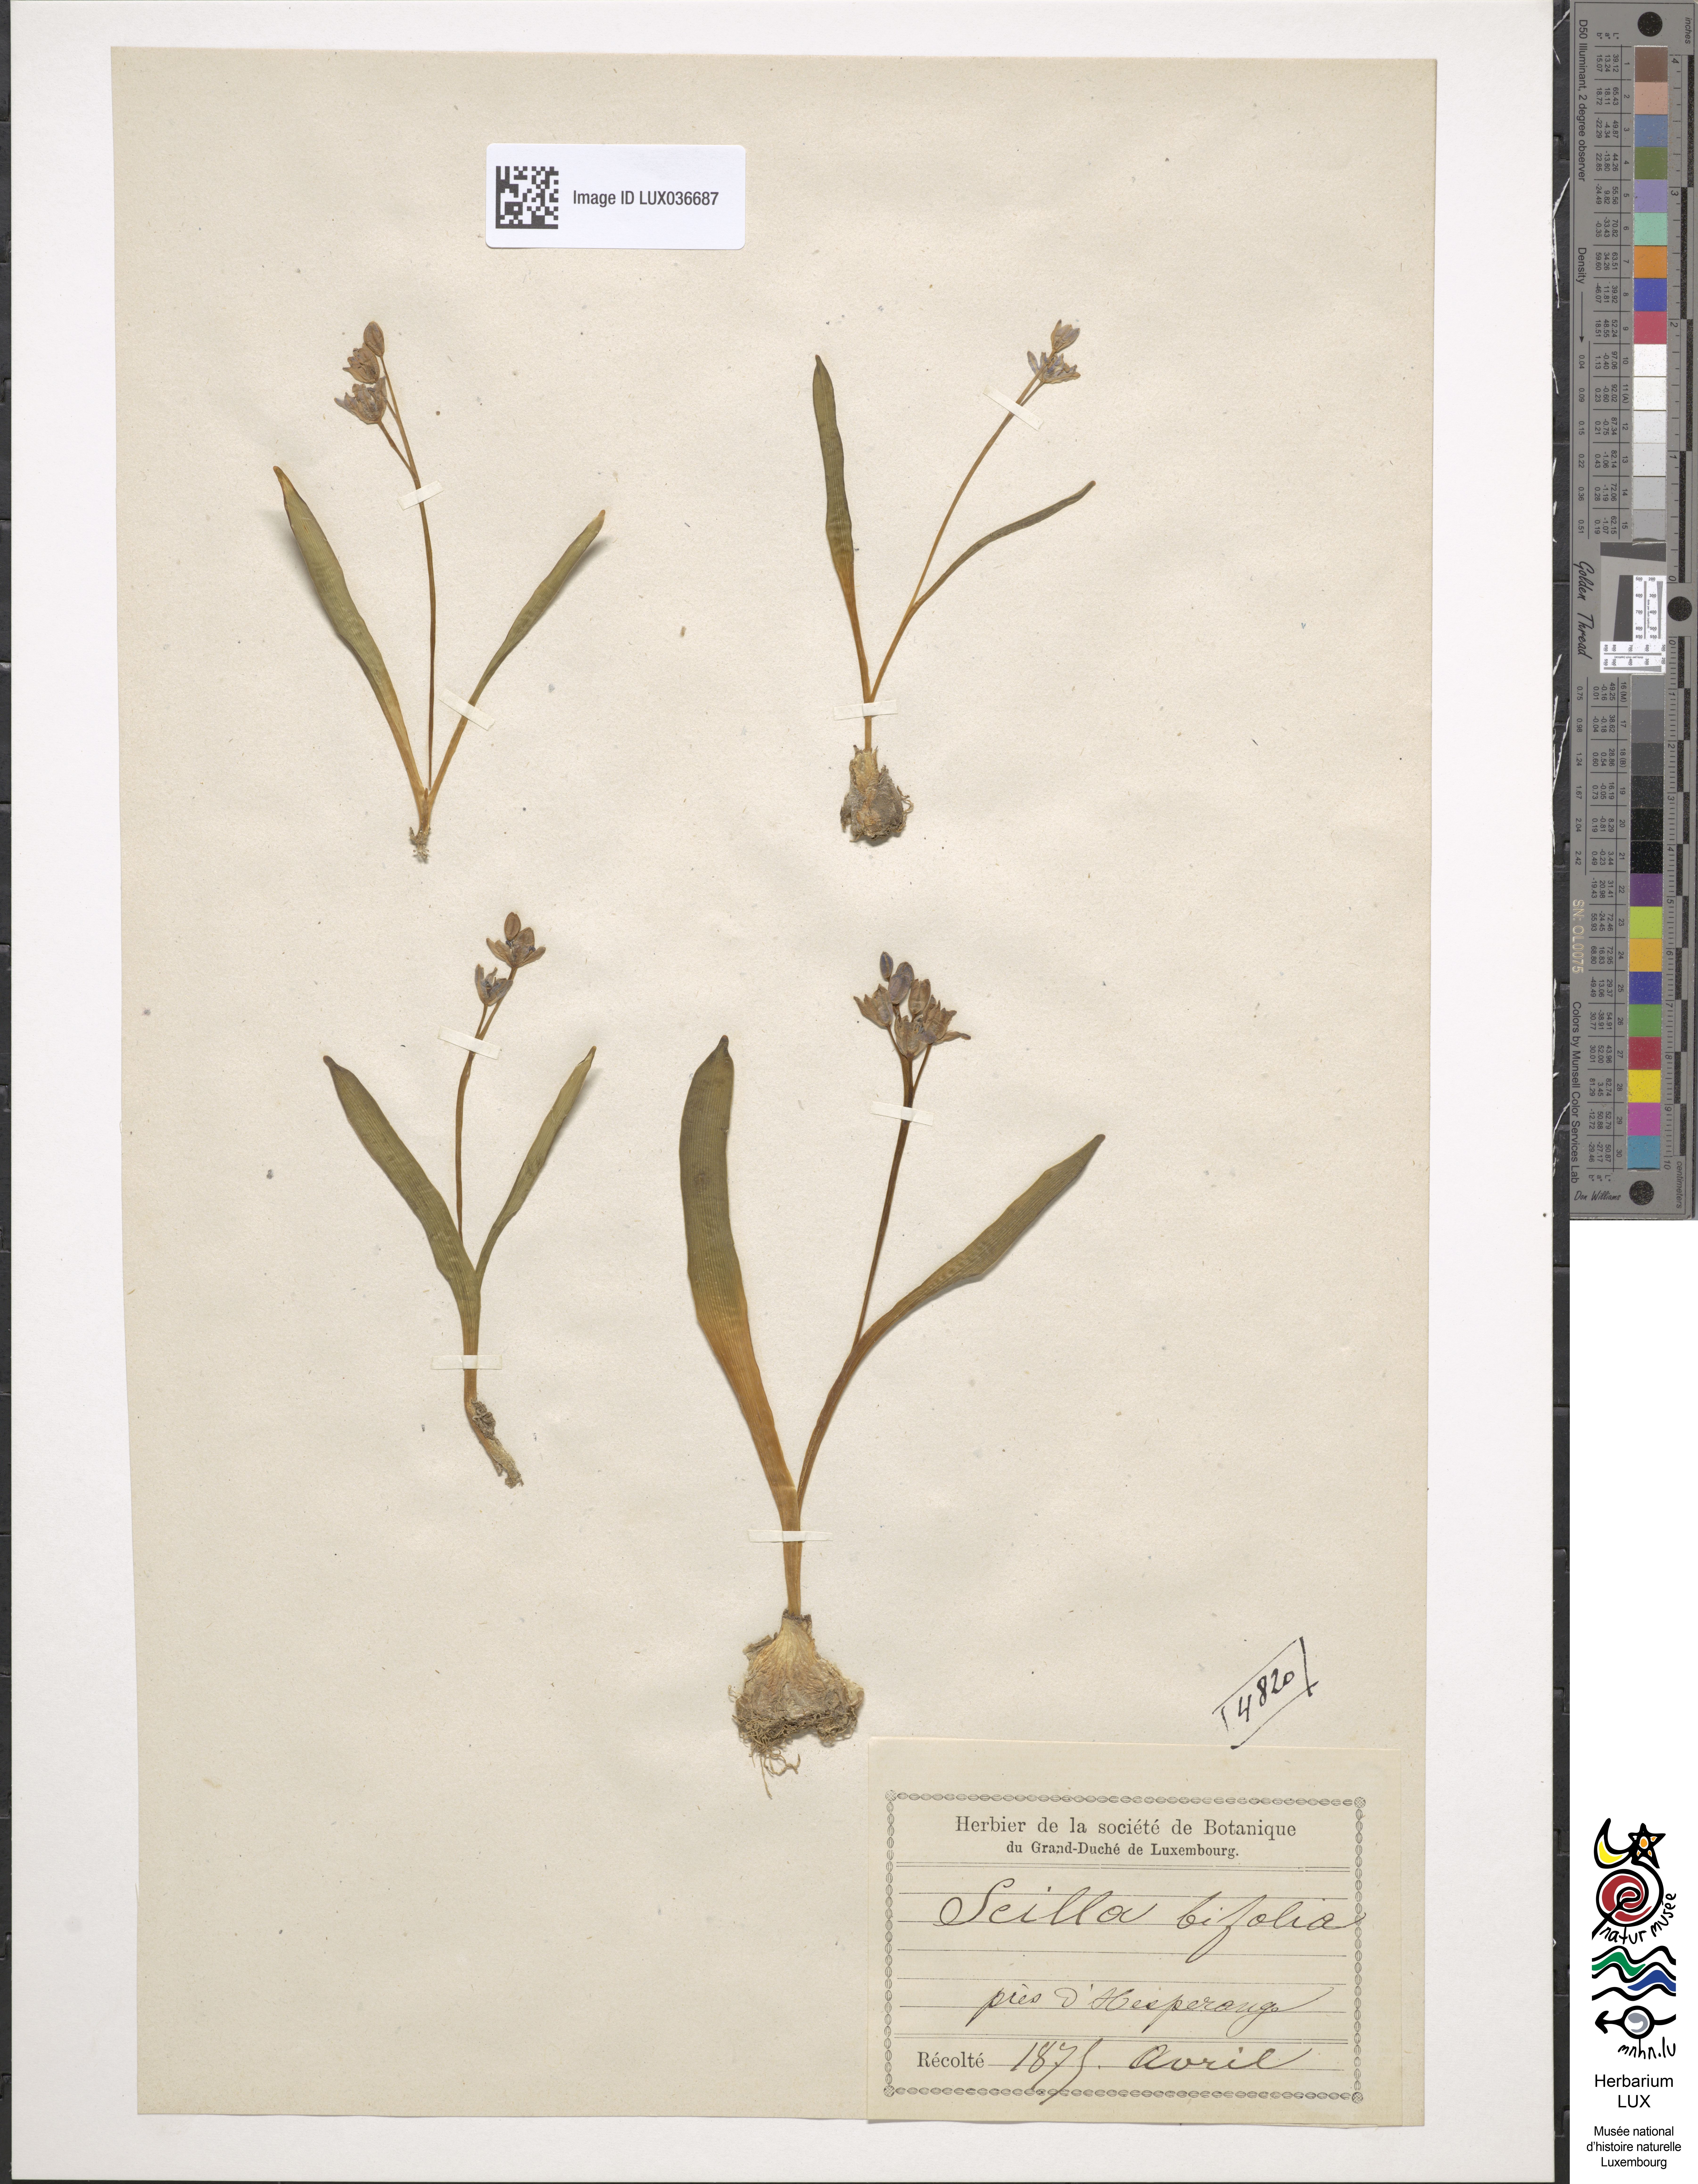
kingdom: Plantae
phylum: Tracheophyta
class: Liliopsida
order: Asparagales
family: Asparagaceae
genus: Scilla
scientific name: Scilla bifolia
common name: Alpine squill
